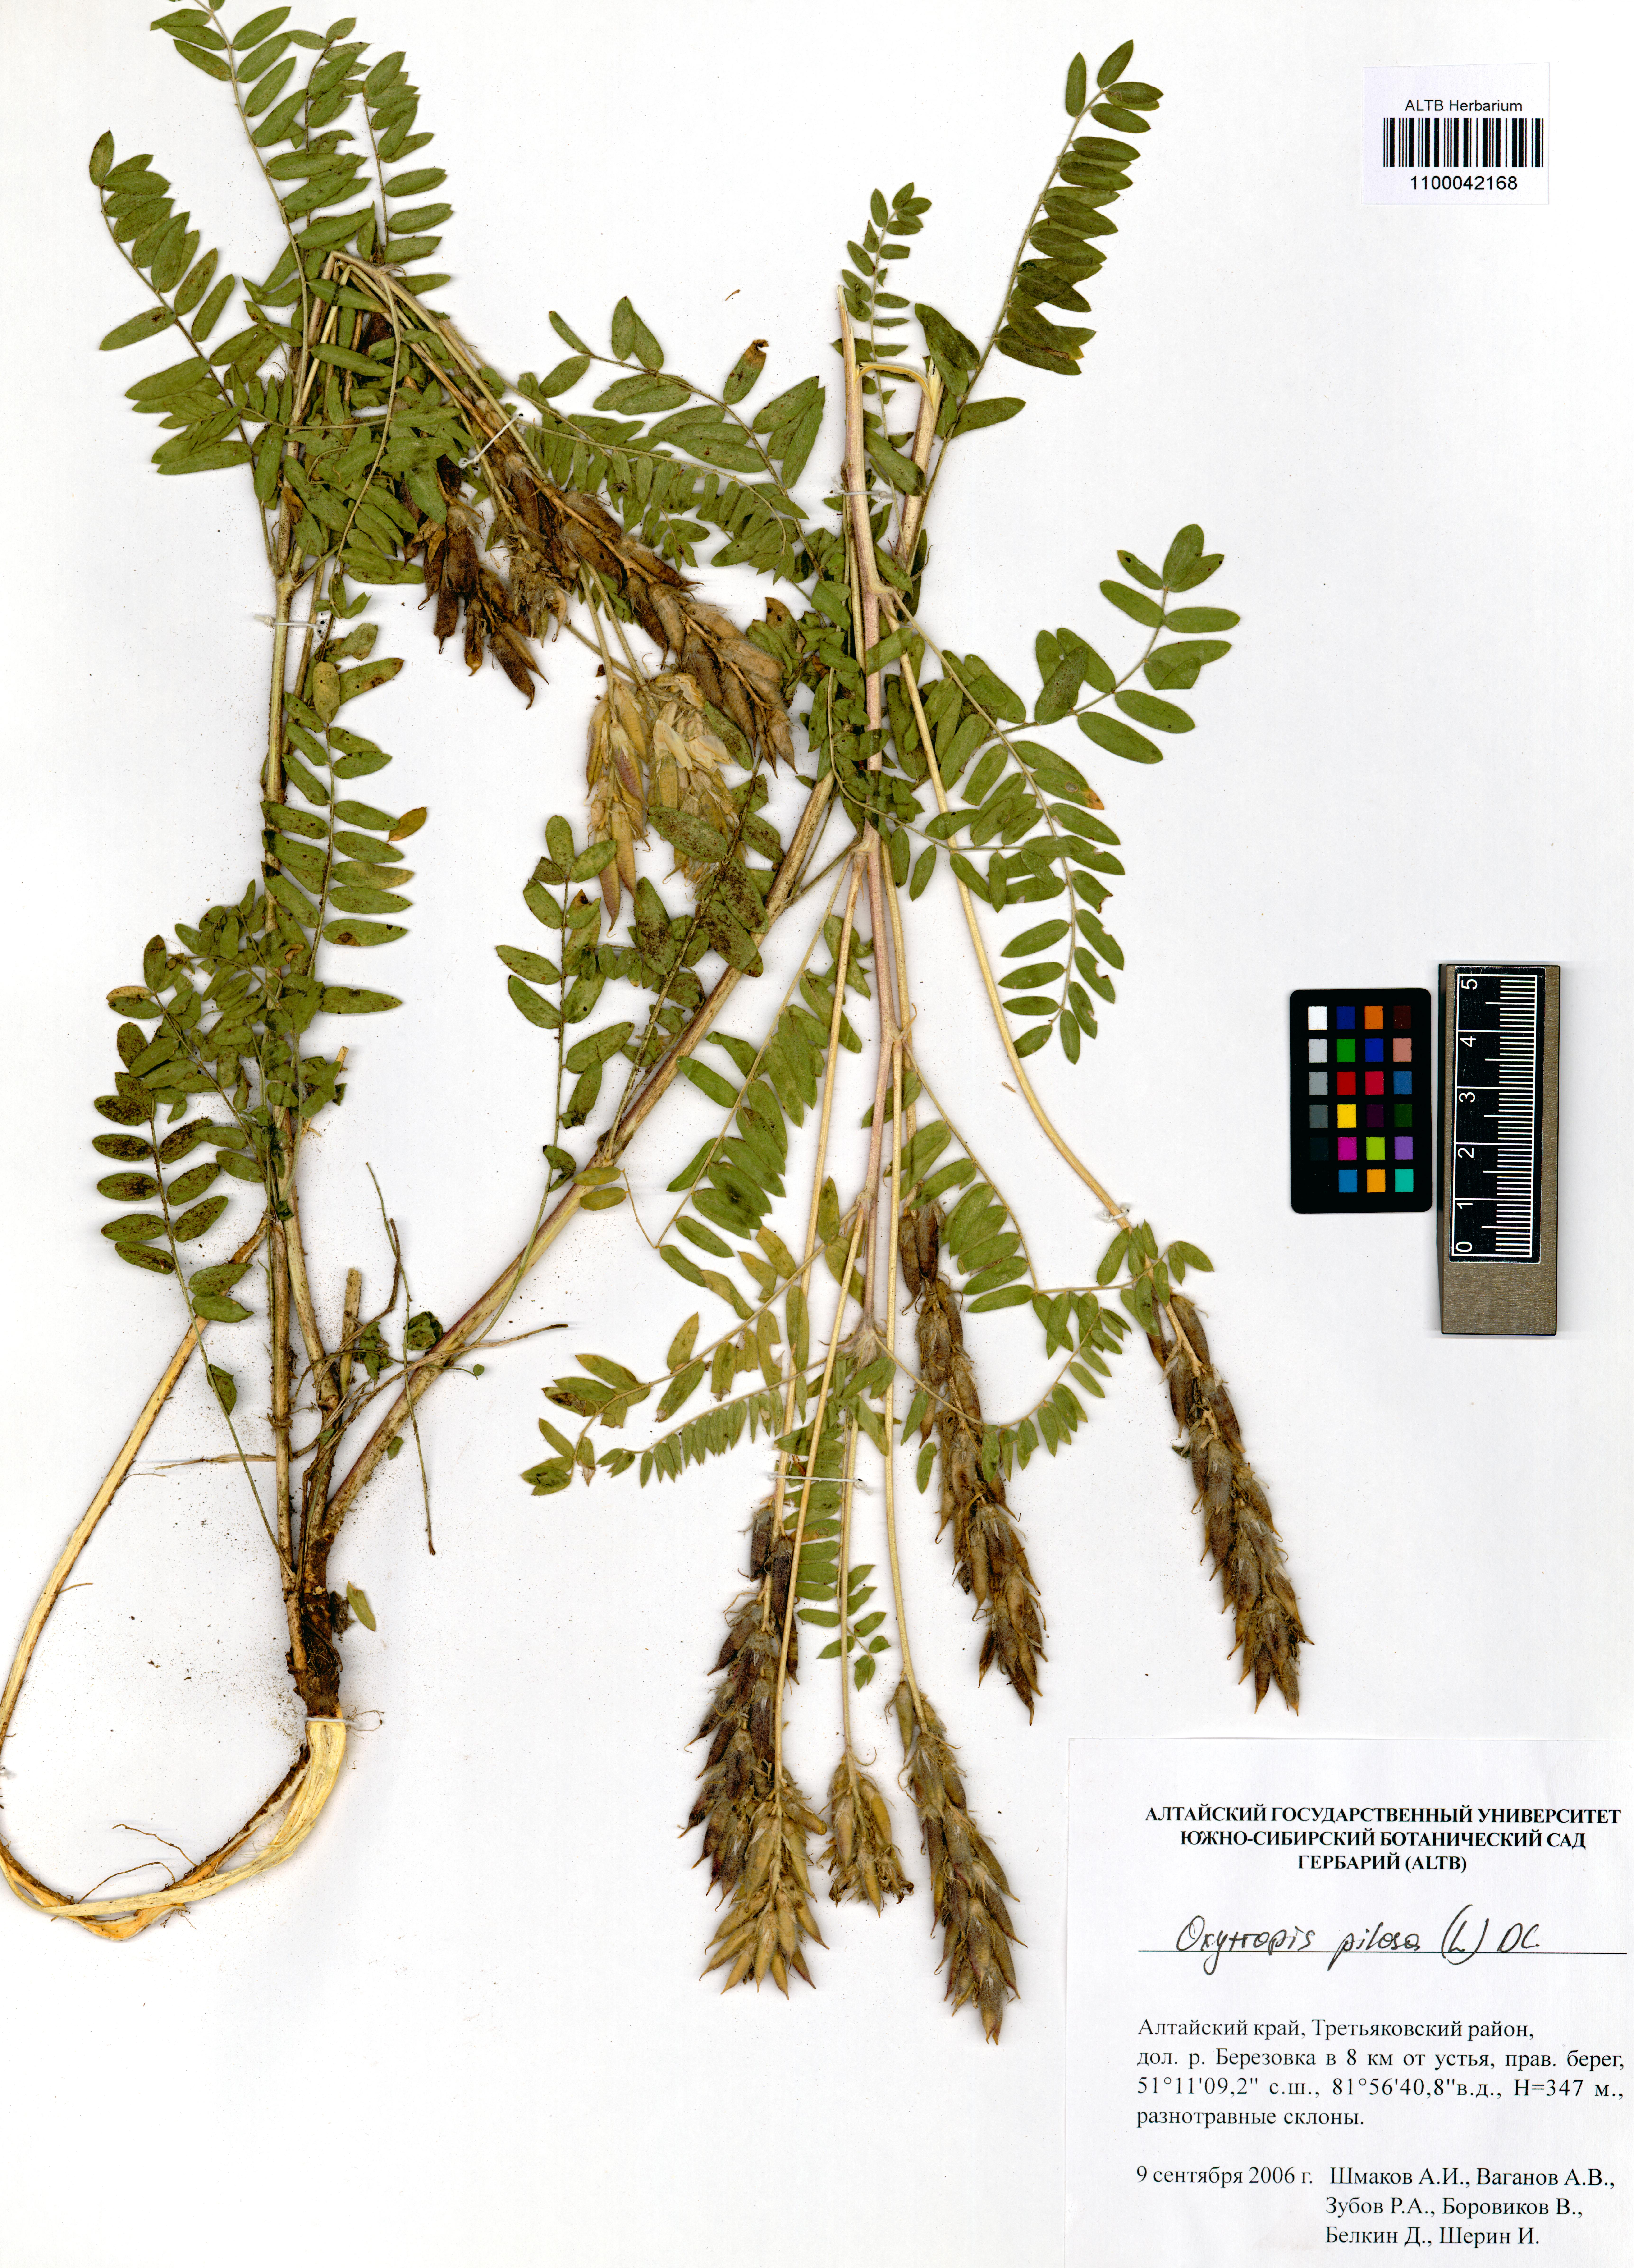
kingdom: Plantae
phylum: Tracheophyta
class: Magnoliopsida
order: Fabales
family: Fabaceae
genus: Oxytropis
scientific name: Oxytropis pilosa
